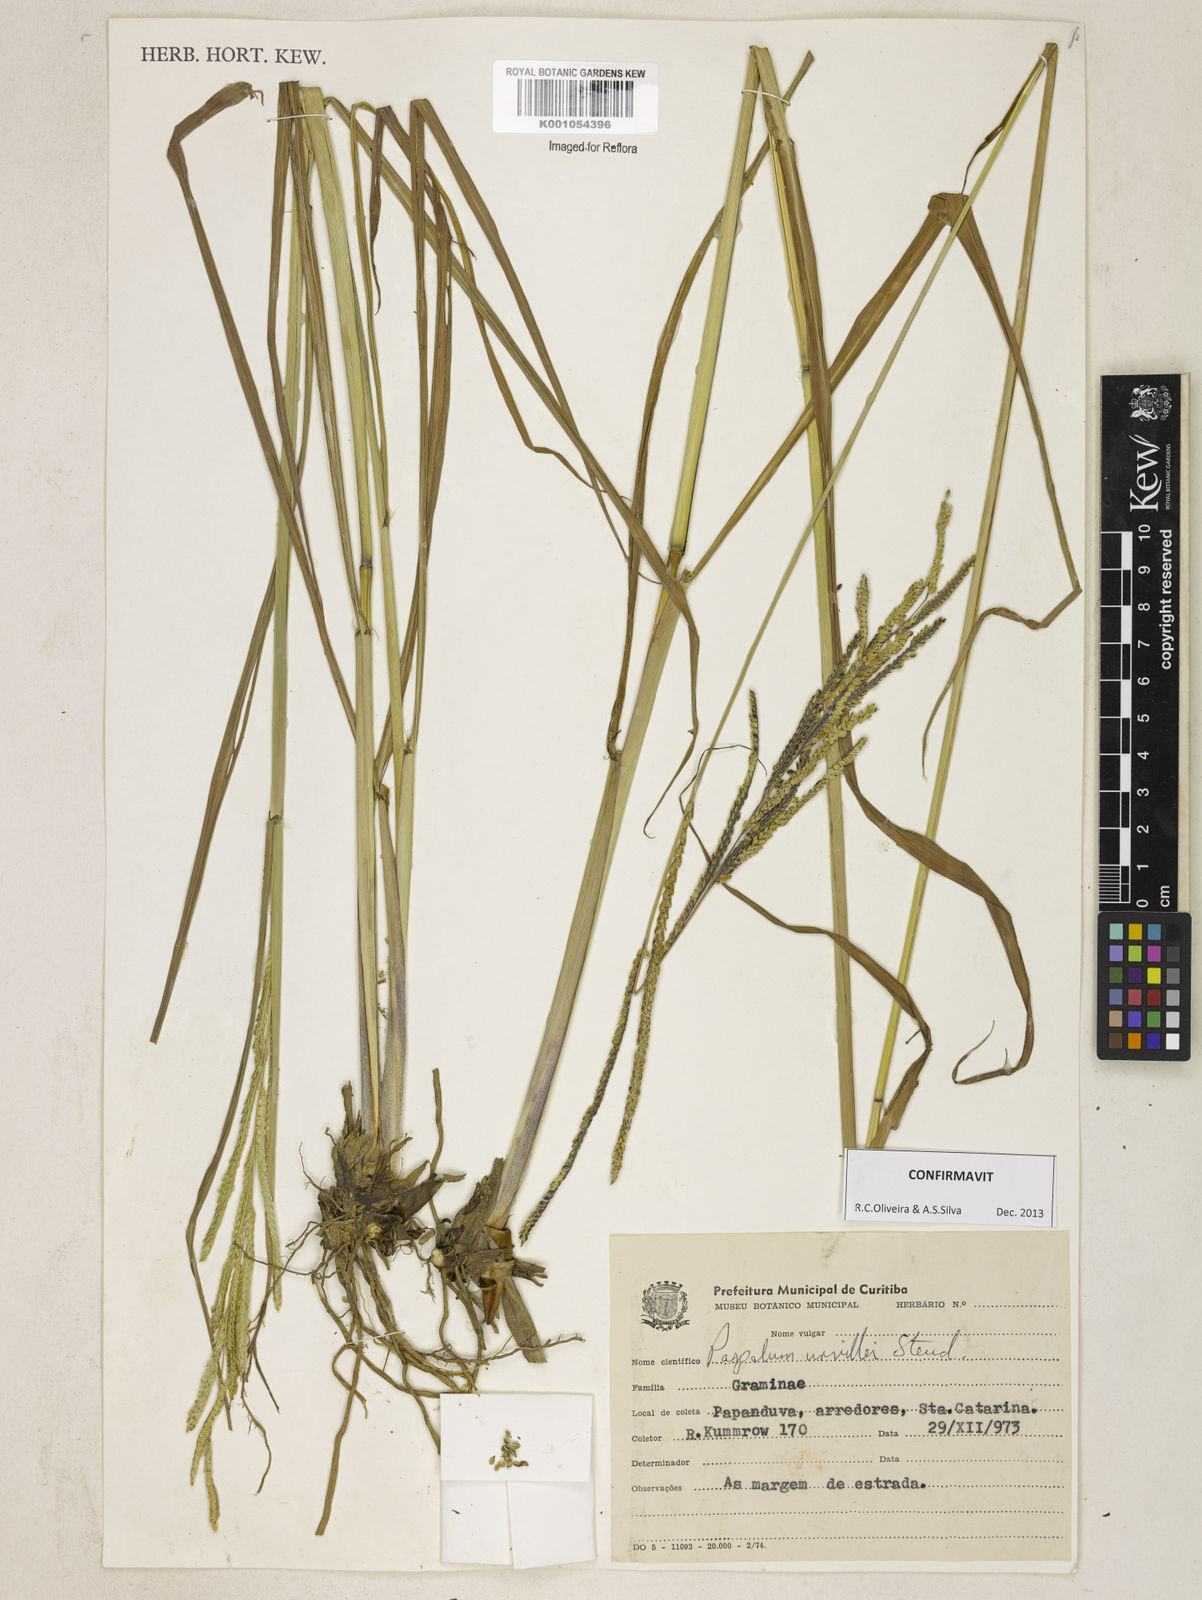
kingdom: Plantae
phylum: Tracheophyta
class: Liliopsida
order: Poales
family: Poaceae
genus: Paspalum
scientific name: Paspalum urvillei
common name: Vasey's grass
